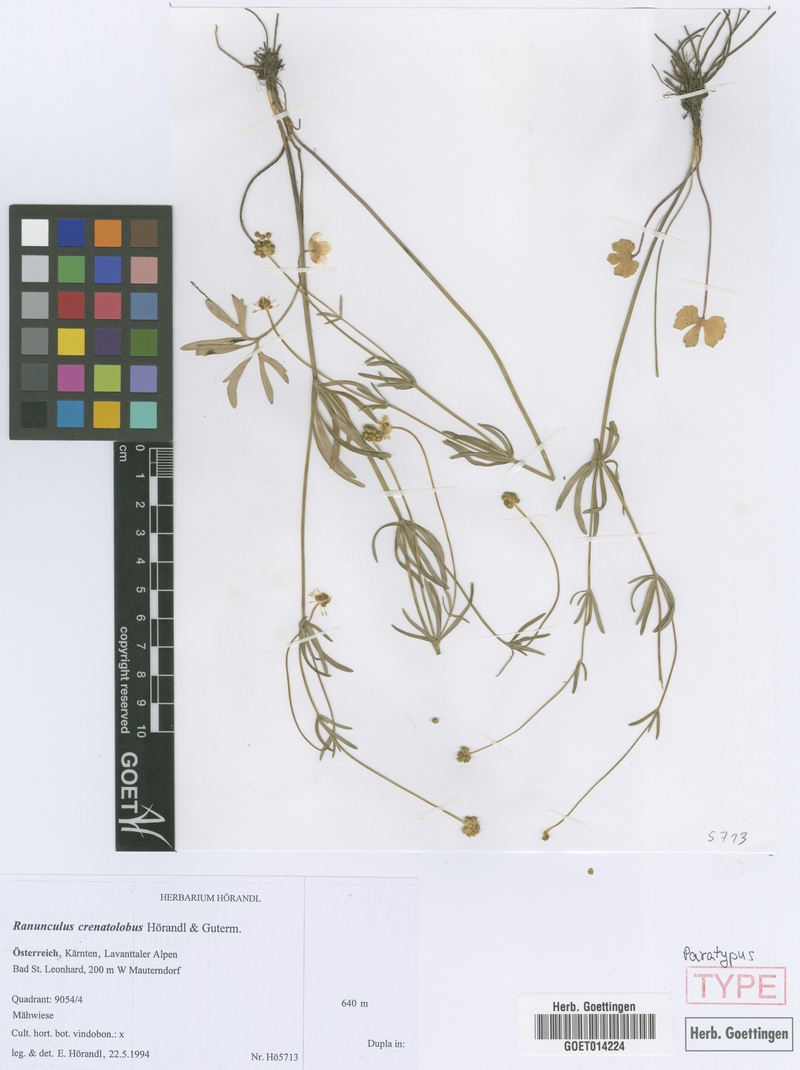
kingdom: Plantae
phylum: Tracheophyta
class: Magnoliopsida
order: Ranunculales
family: Ranunculaceae
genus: Ranunculus
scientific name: Ranunculus crenatolobus
